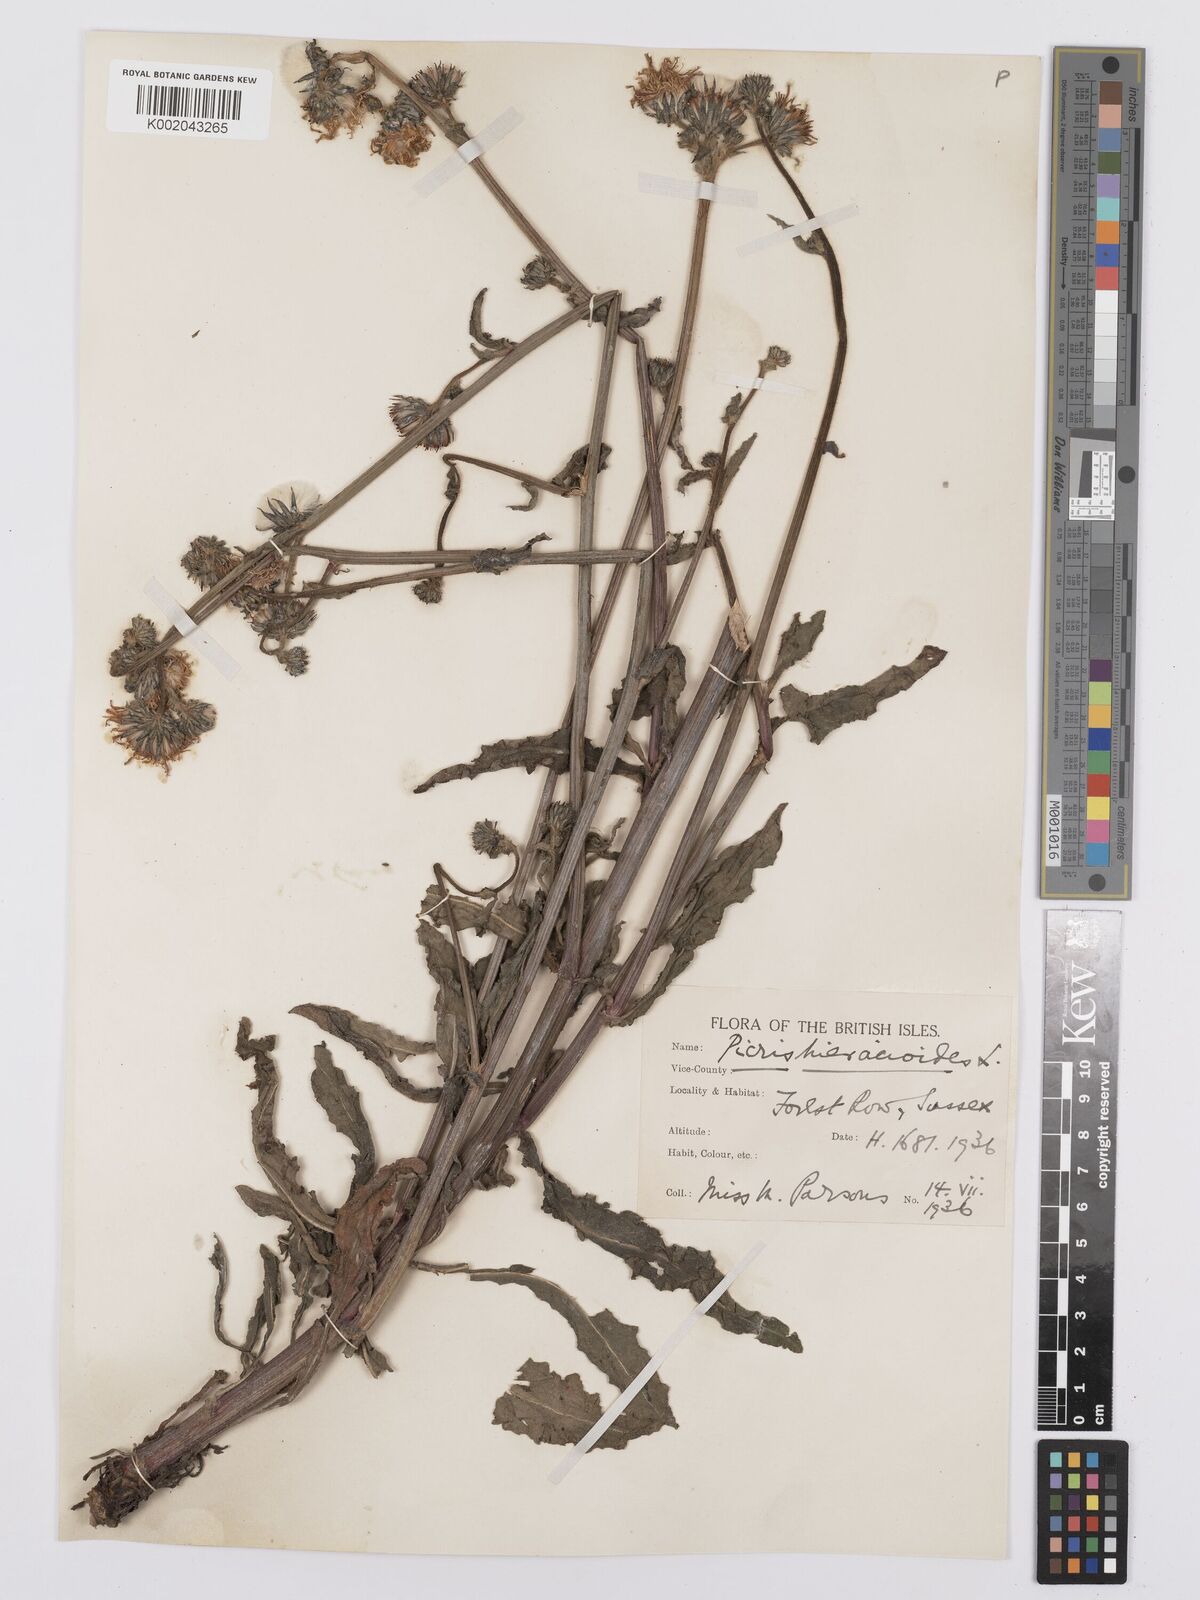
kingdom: Plantae
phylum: Tracheophyta
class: Magnoliopsida
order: Asterales
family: Asteraceae
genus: Picris
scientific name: Picris hieracioides
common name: Hawkweed oxtongue
